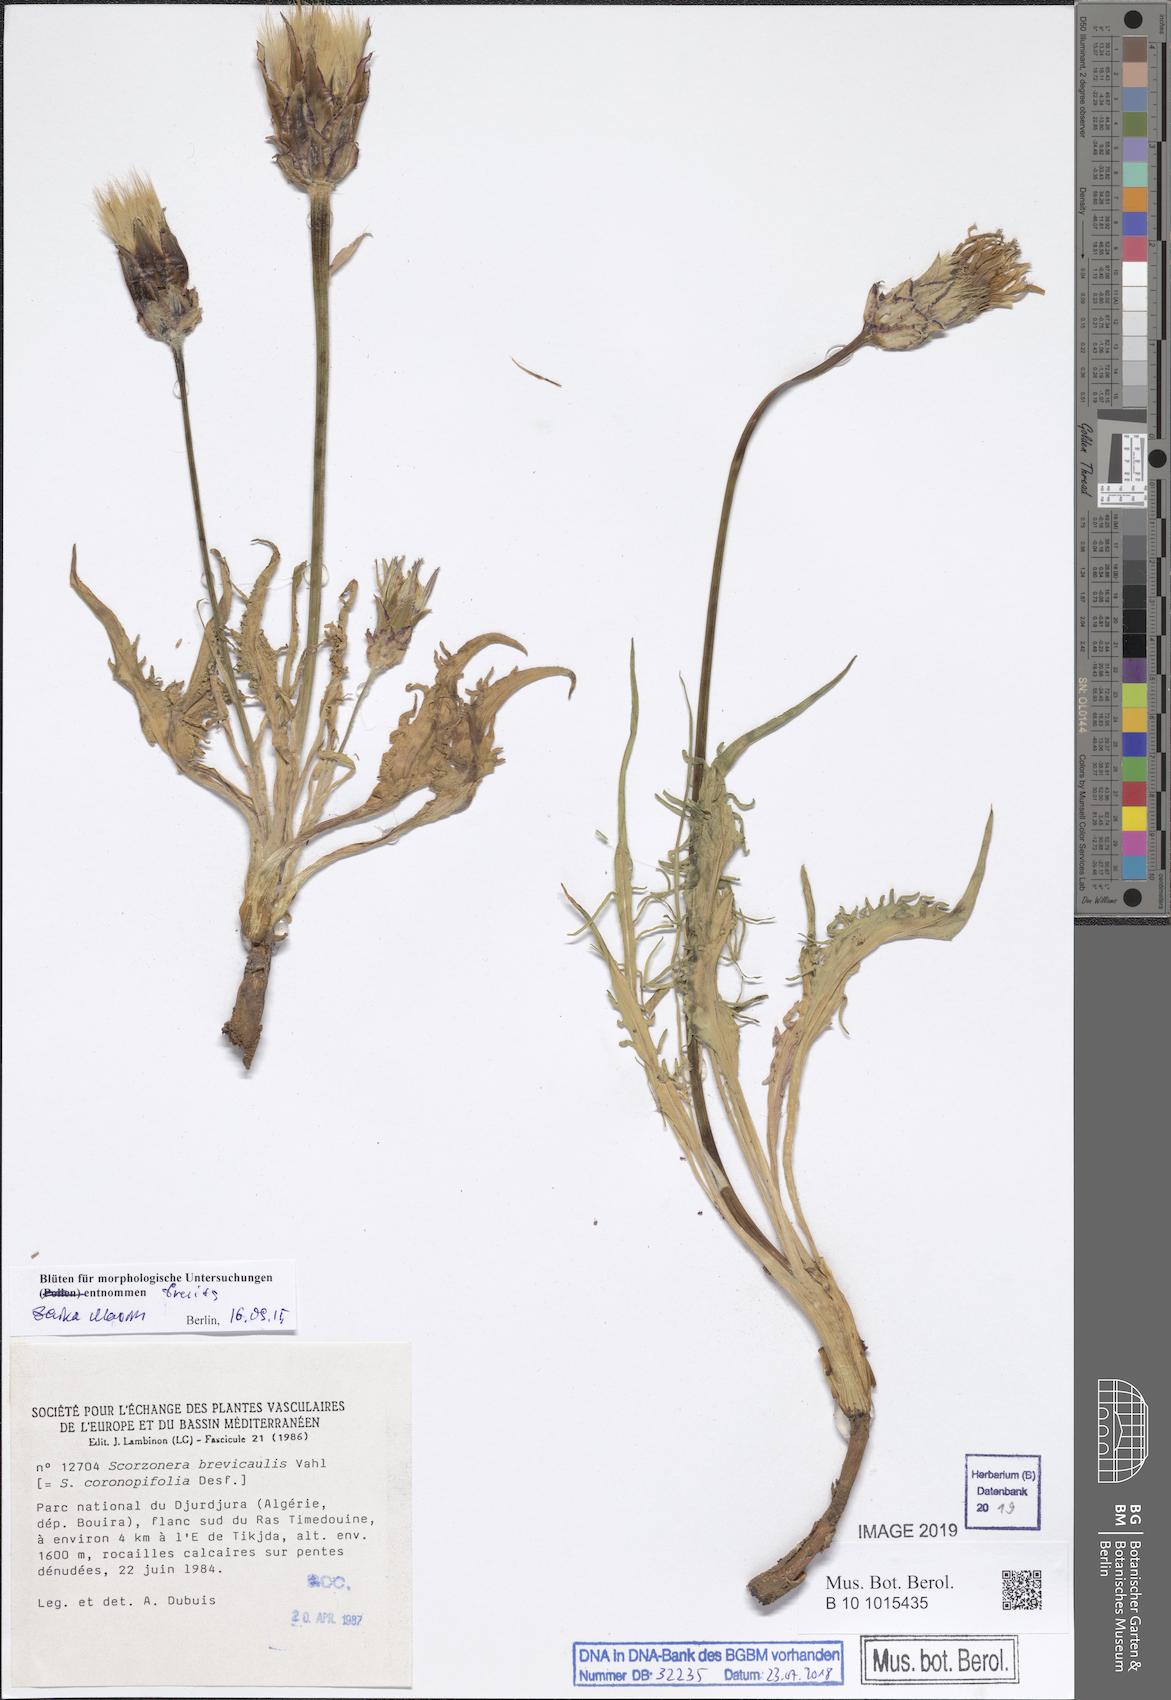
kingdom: Plantae
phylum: Tracheophyta
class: Magnoliopsida
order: Asterales
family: Asteraceae
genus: Pseudopodospermum
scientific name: Pseudopodospermum brevicaule
